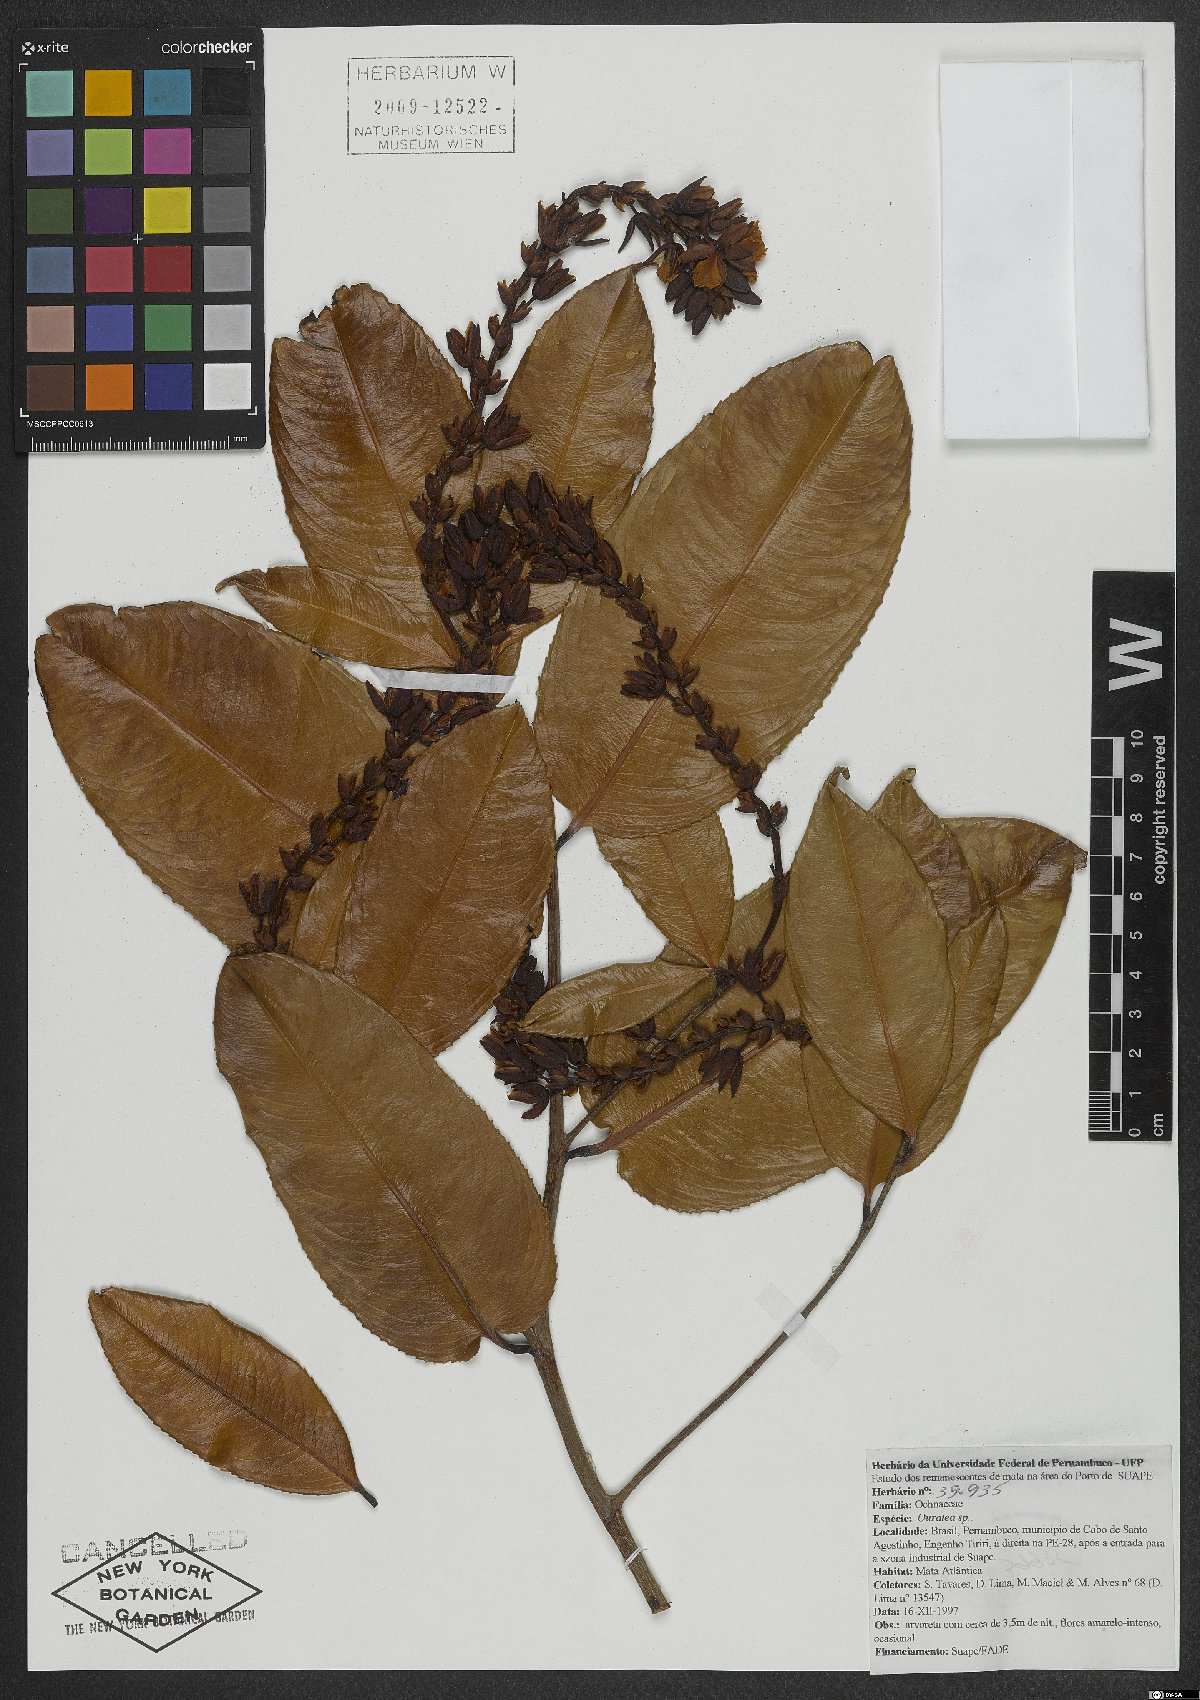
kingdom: Plantae
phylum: Tracheophyta
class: Magnoliopsida
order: Malpighiales
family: Ochnaceae
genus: Ouratea
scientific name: Ouratea
